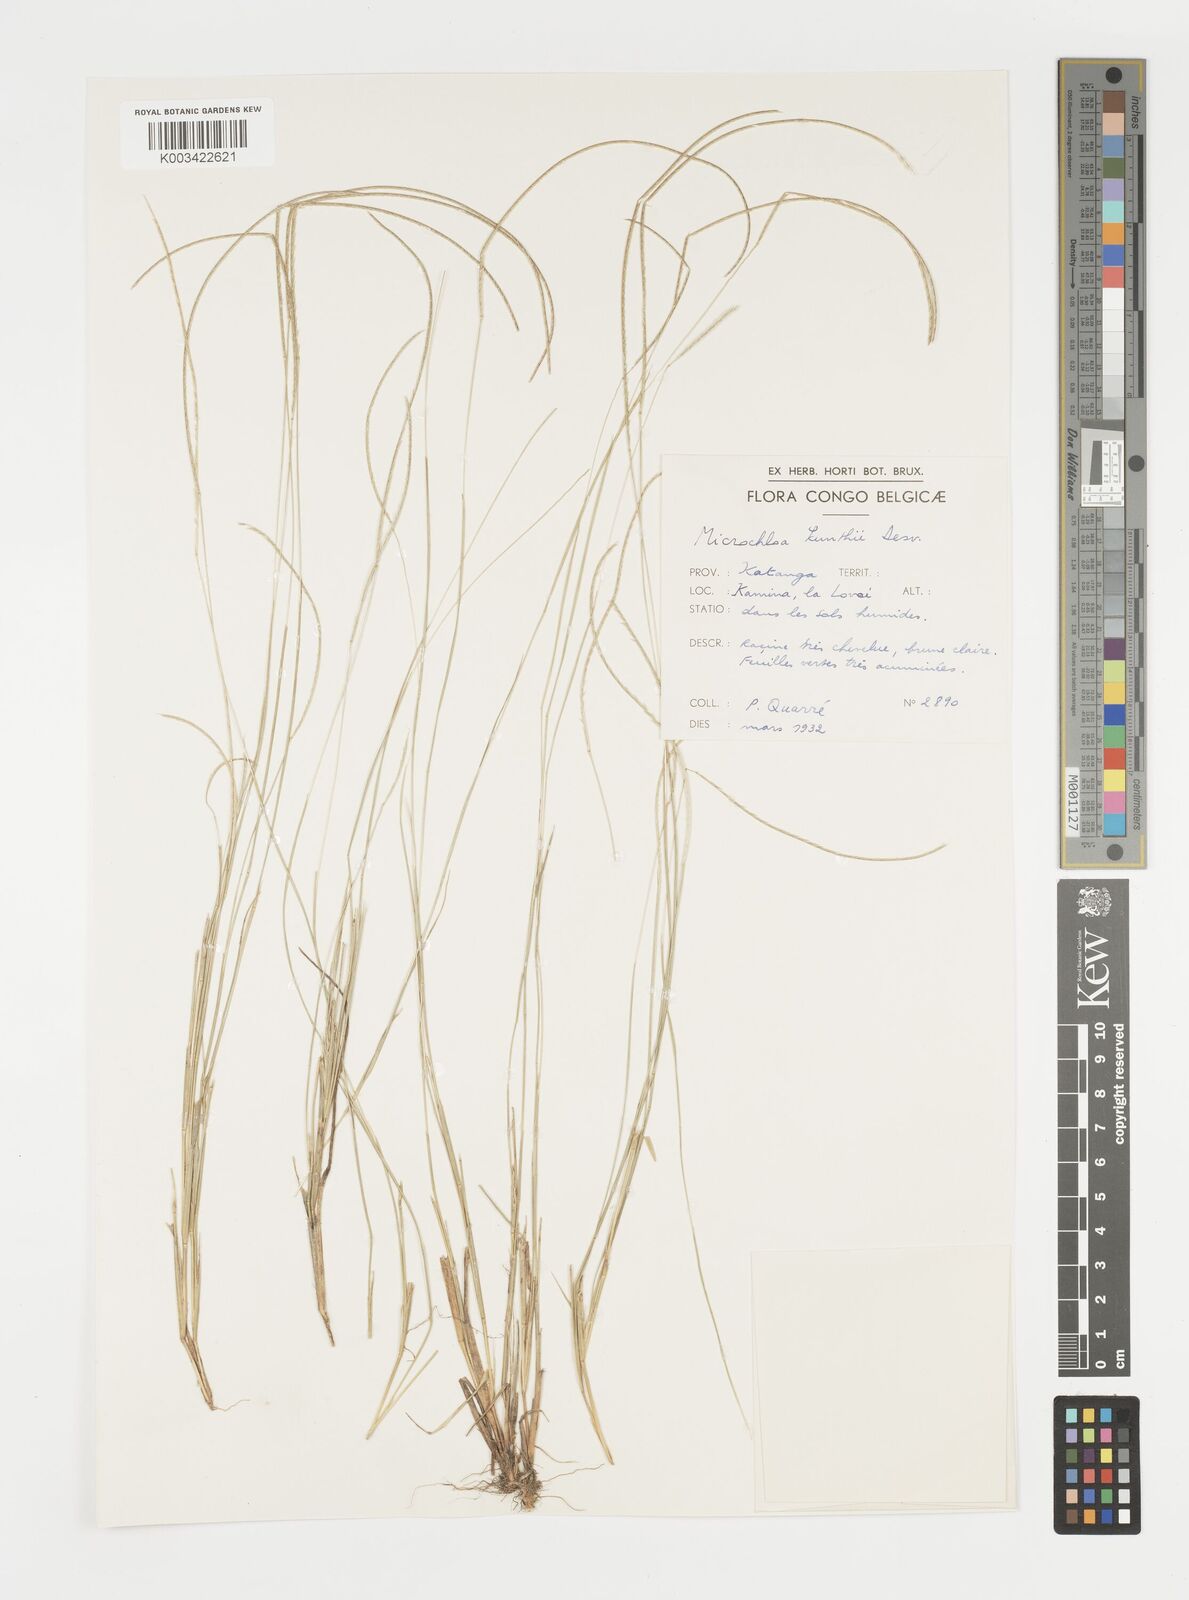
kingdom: Plantae
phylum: Tracheophyta
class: Liliopsida
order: Poales
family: Poaceae
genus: Microchloa
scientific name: Microchloa kunthii
